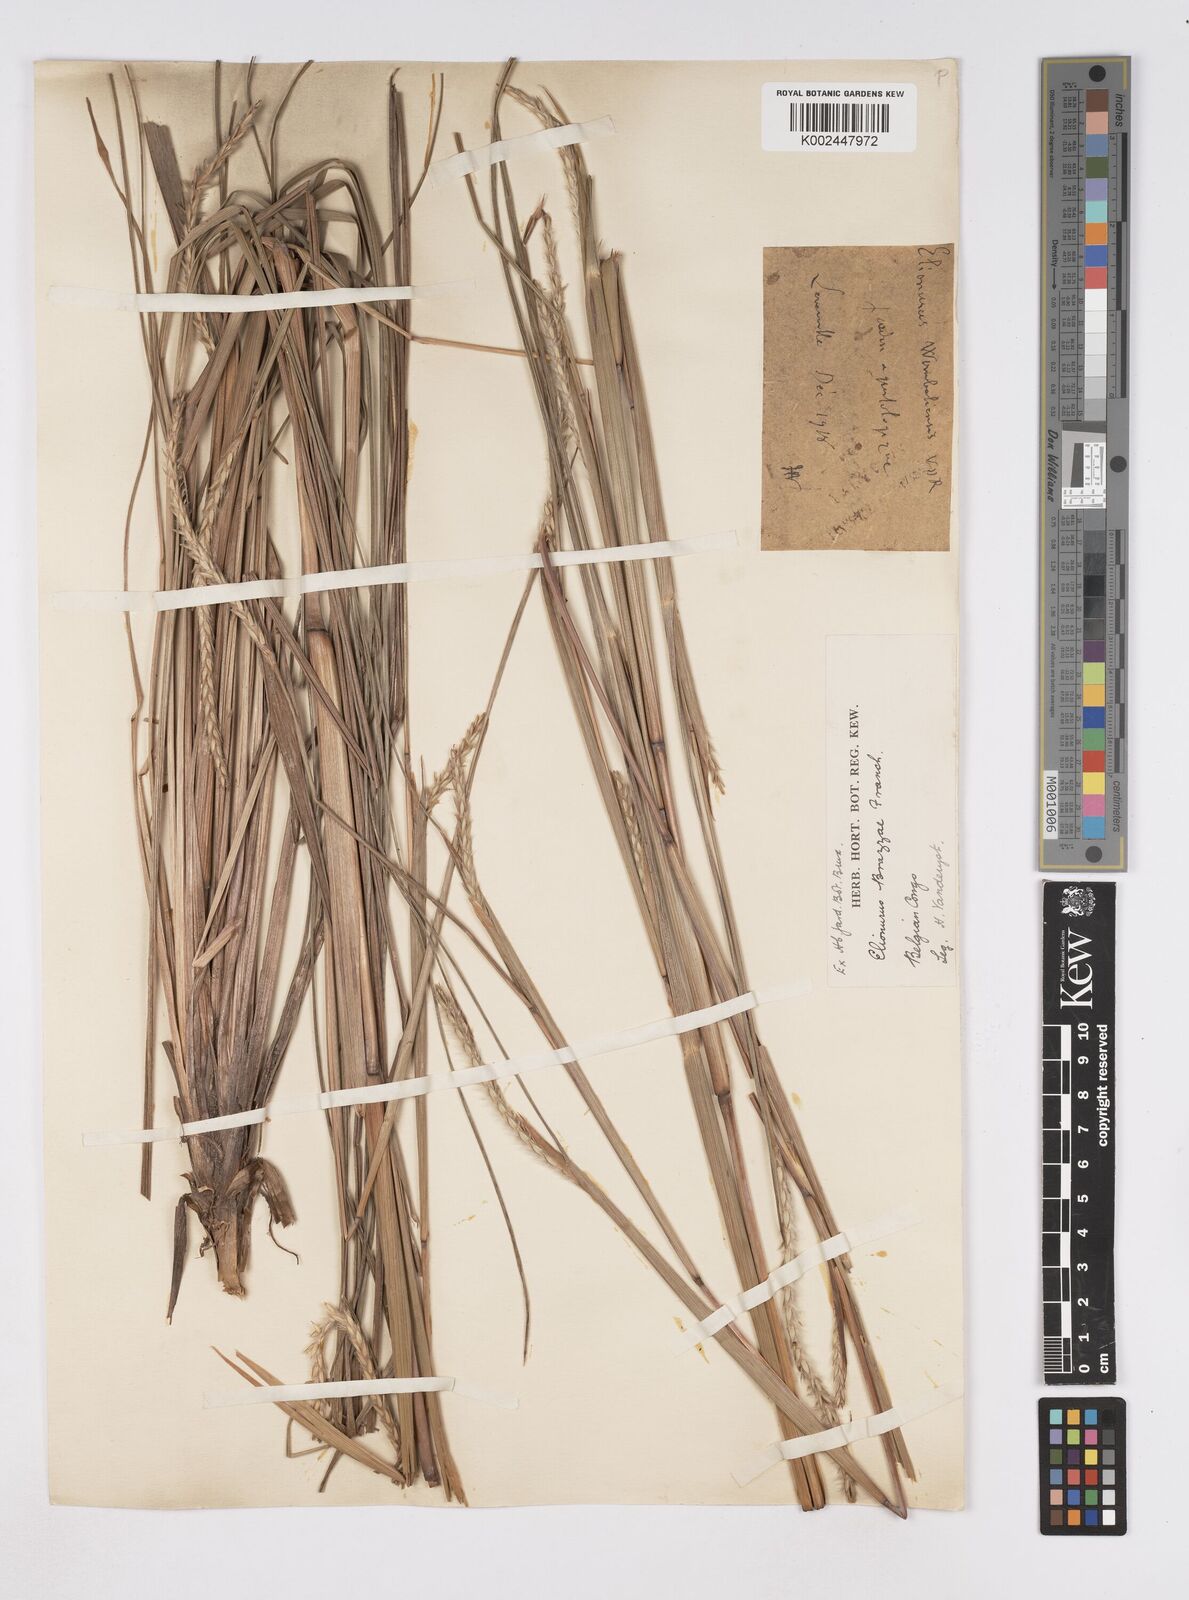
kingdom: Plantae
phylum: Tracheophyta
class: Liliopsida
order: Poales
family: Poaceae
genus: Elionurus
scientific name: Elionurus platypus
